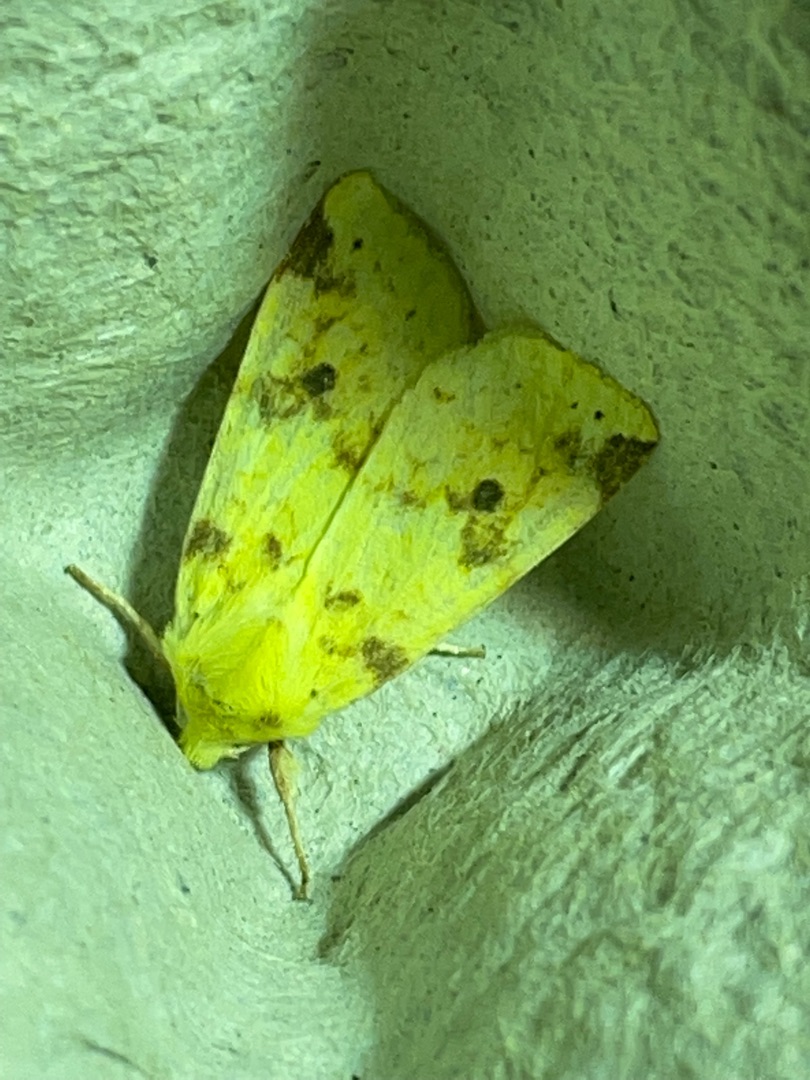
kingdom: Animalia
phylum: Arthropoda
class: Insecta
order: Lepidoptera
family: Noctuidae
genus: Xanthia
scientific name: Xanthia Cirrhia icteritia
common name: Brombær-guldugle
